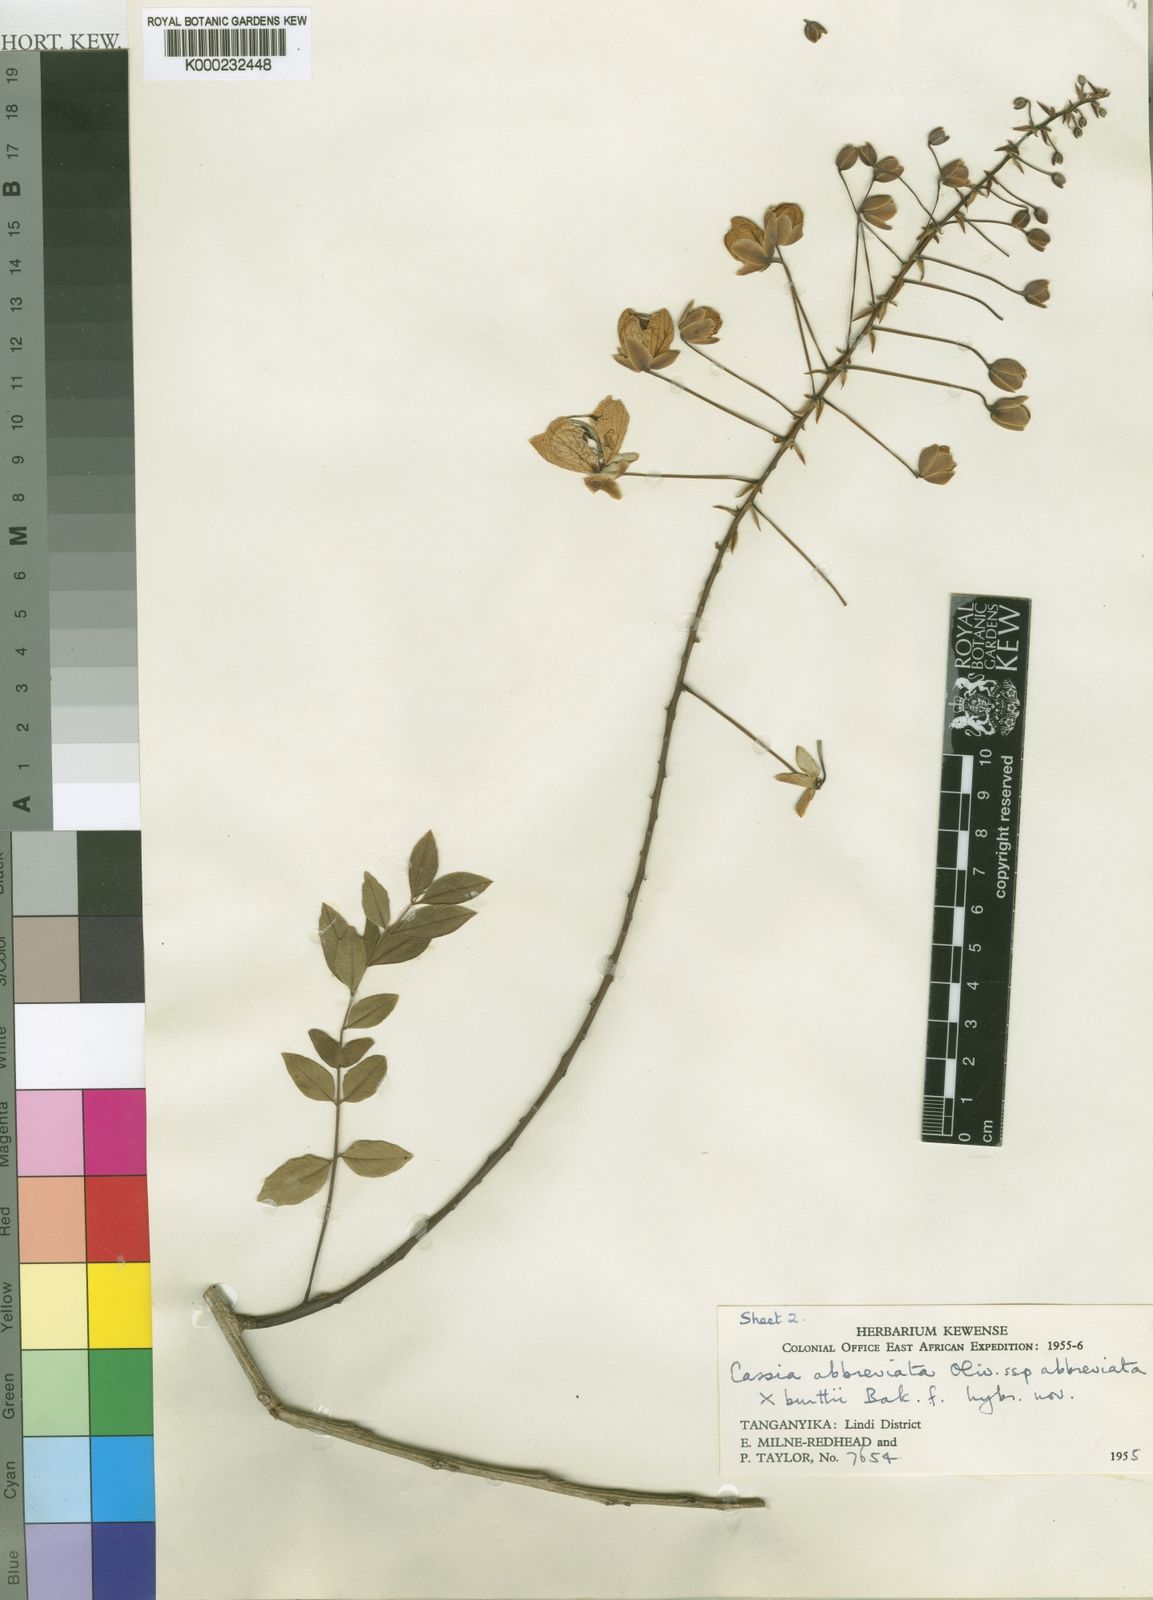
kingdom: Plantae
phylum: Tracheophyta
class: Magnoliopsida
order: Fabales
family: Fabaceae
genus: Cassia
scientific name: Cassia
